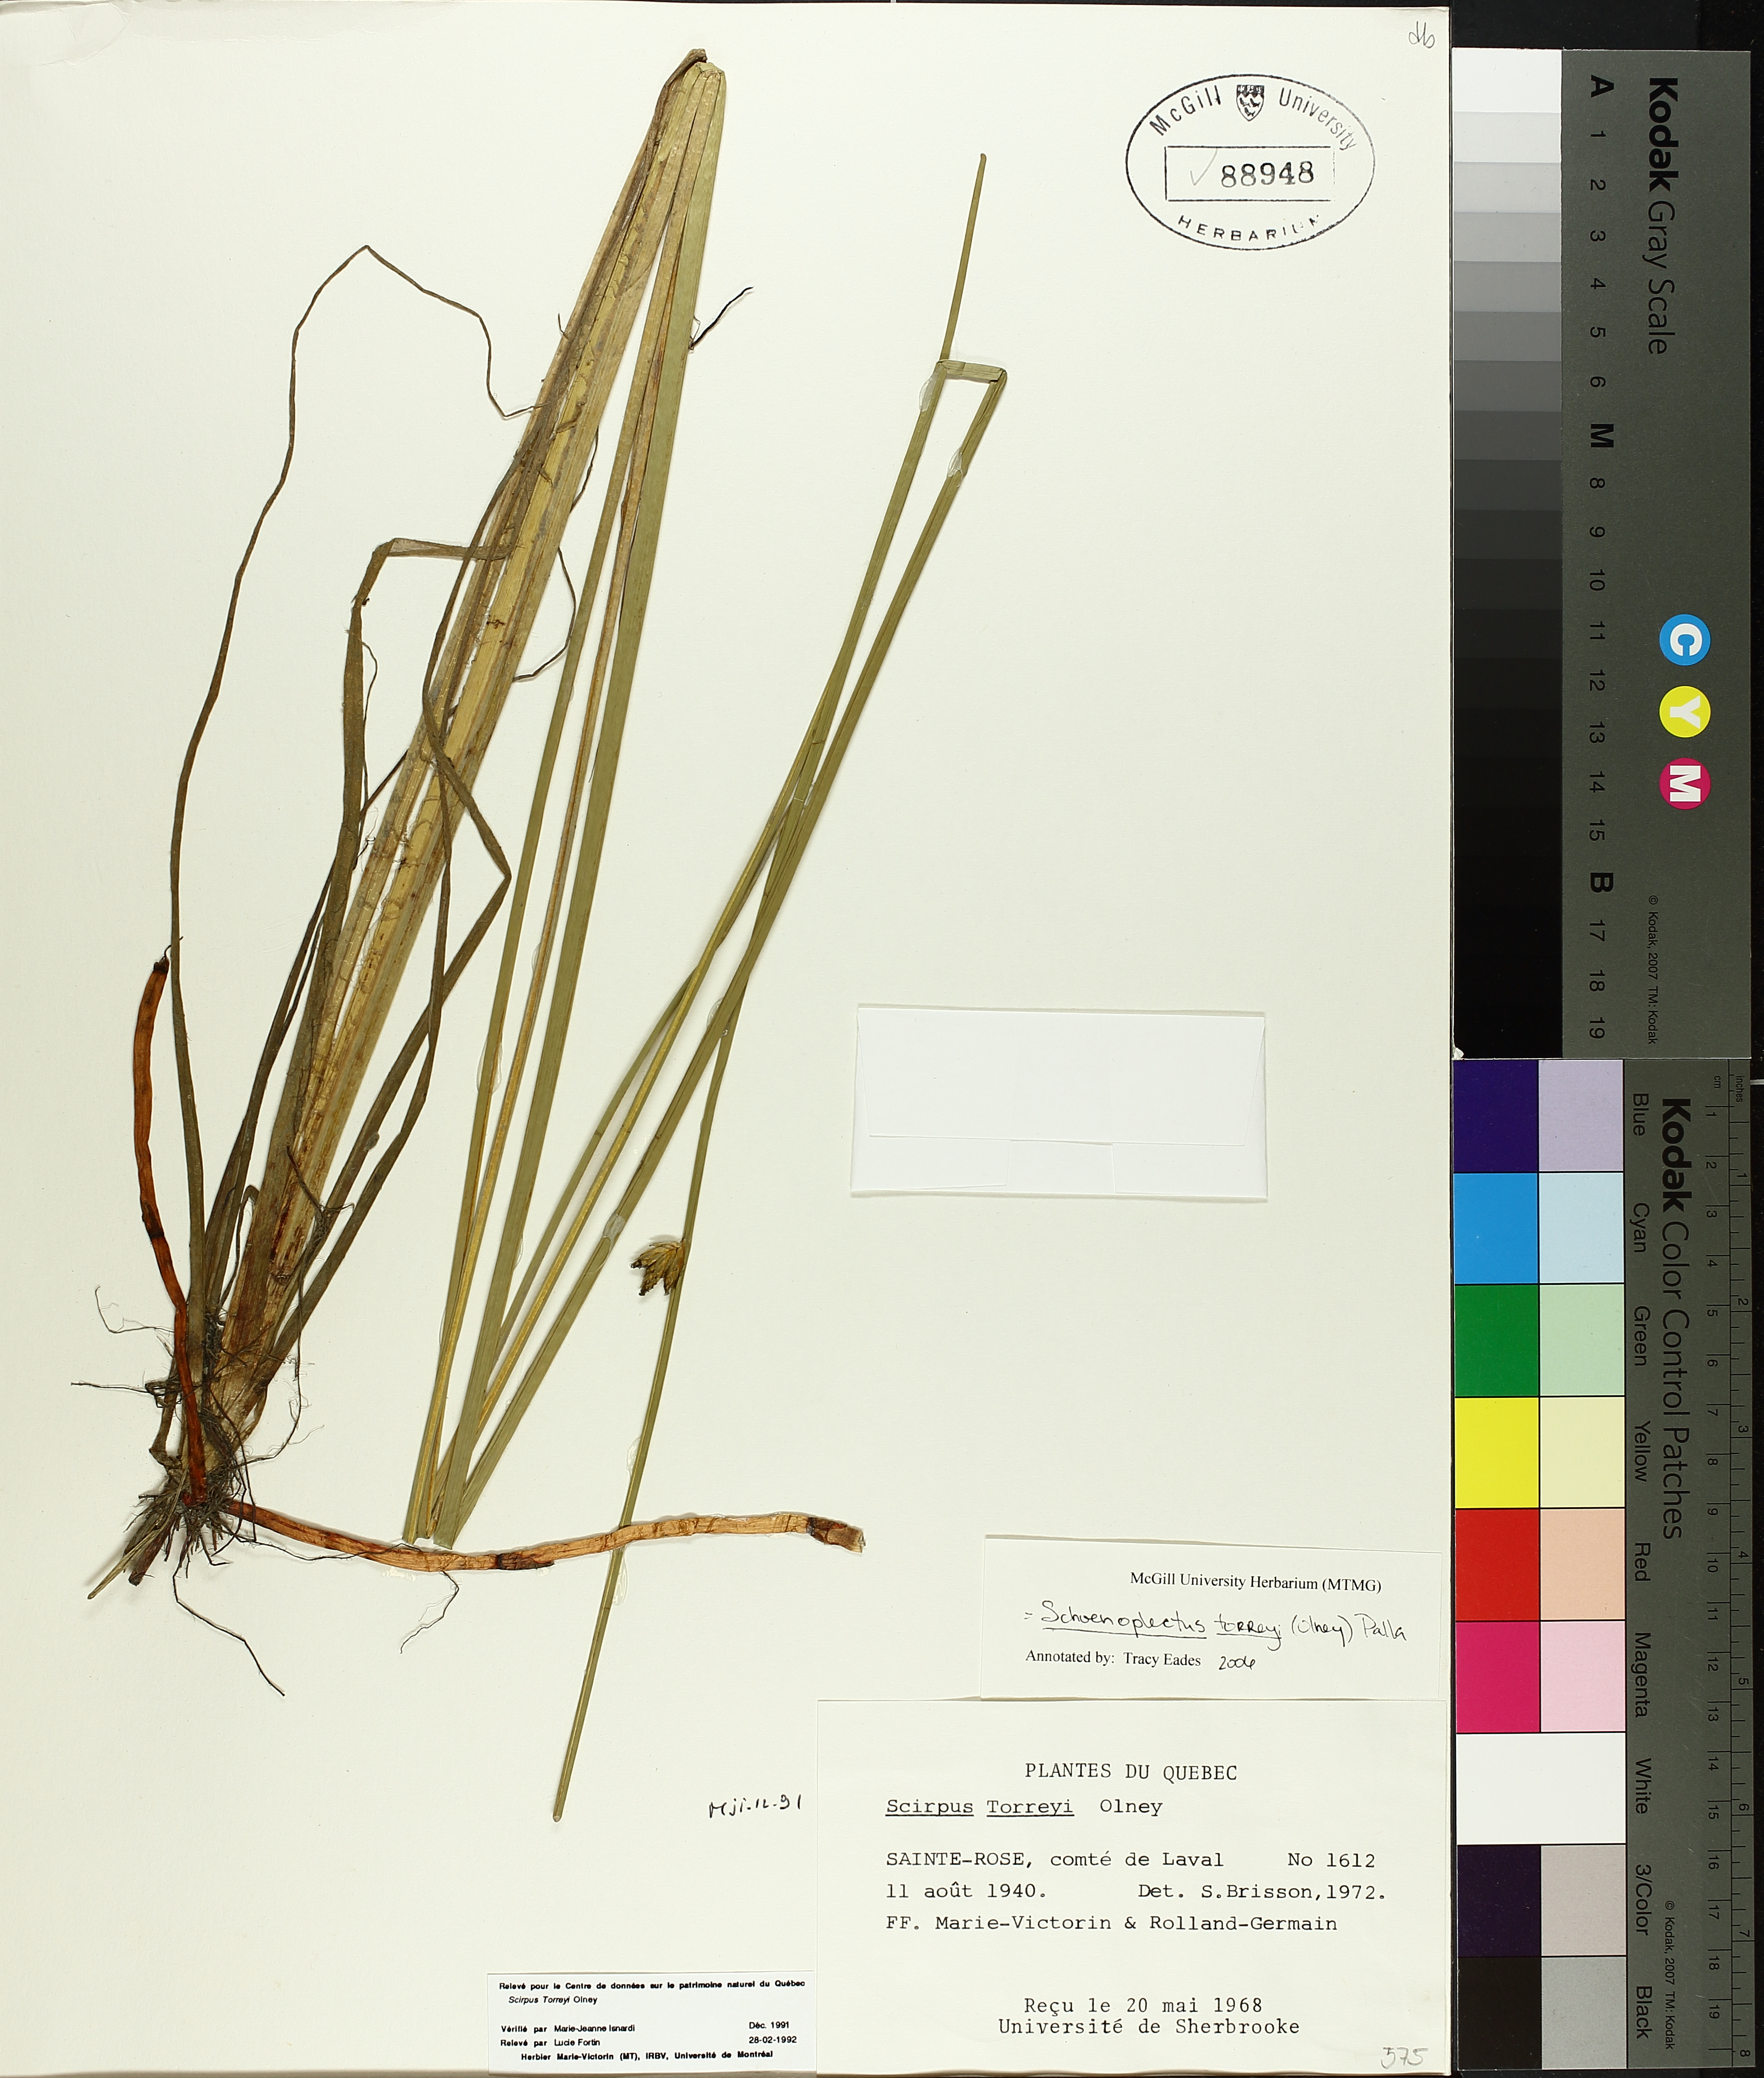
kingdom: Plantae
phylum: Tracheophyta
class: Liliopsida
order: Poales
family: Cyperaceae
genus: Schoenoplectus
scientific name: Schoenoplectus torreyi
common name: Torrey's bulrush
